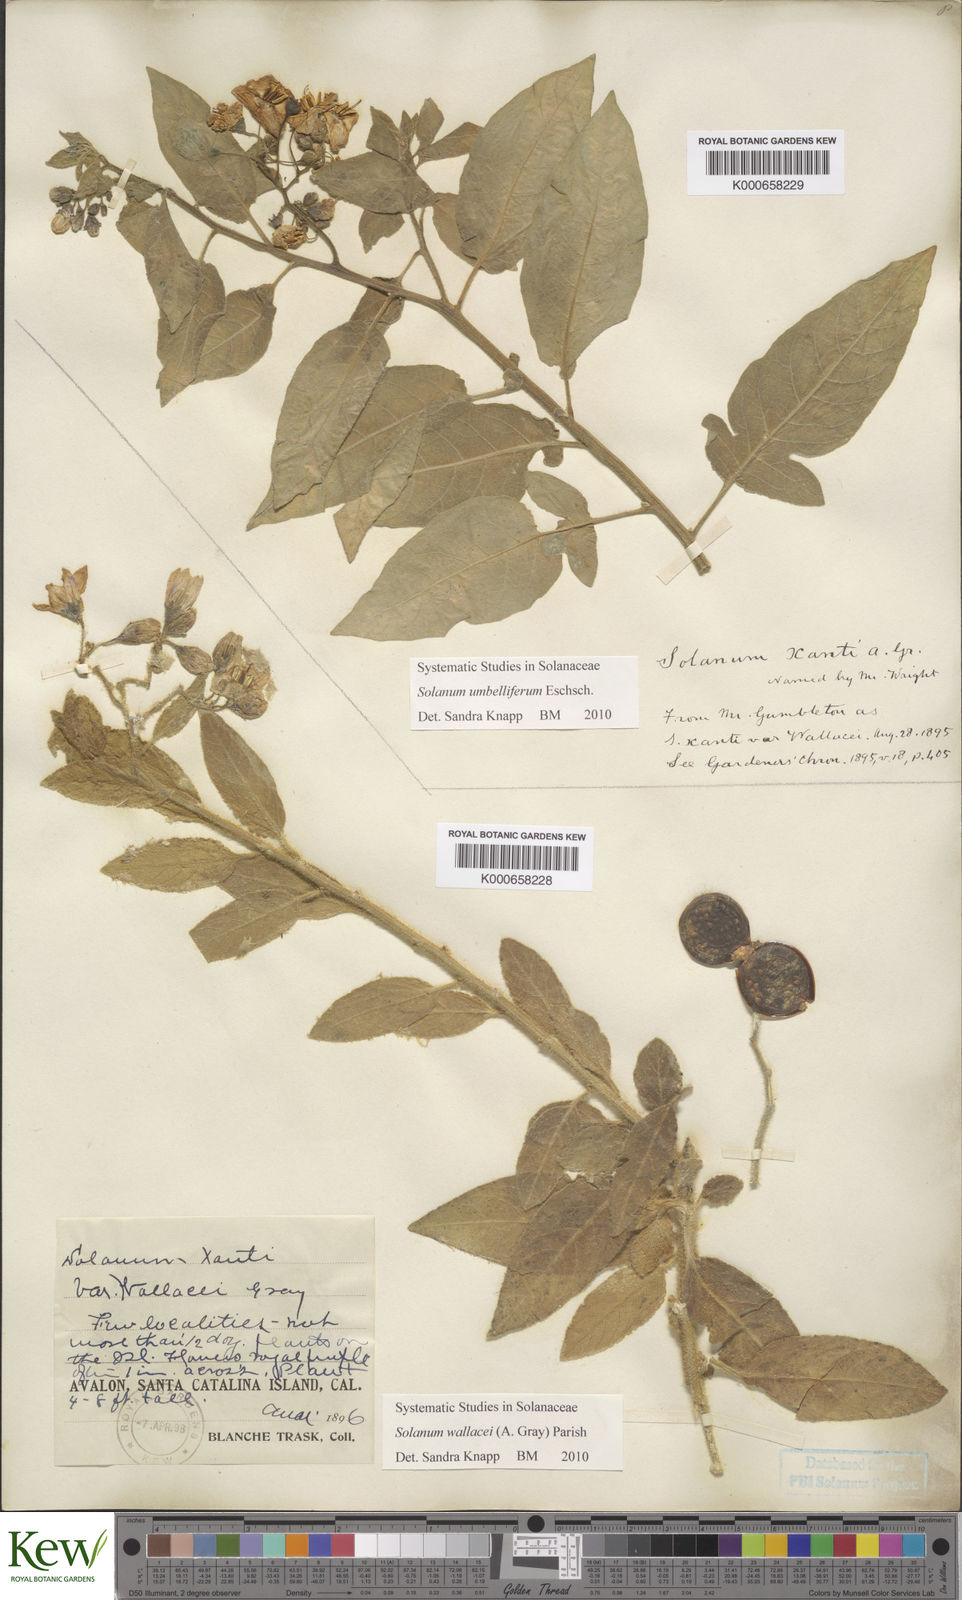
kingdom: Plantae
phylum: Tracheophyta
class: Magnoliopsida
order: Solanales
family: Solanaceae
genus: Solanum
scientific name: Solanum umbelliferum
